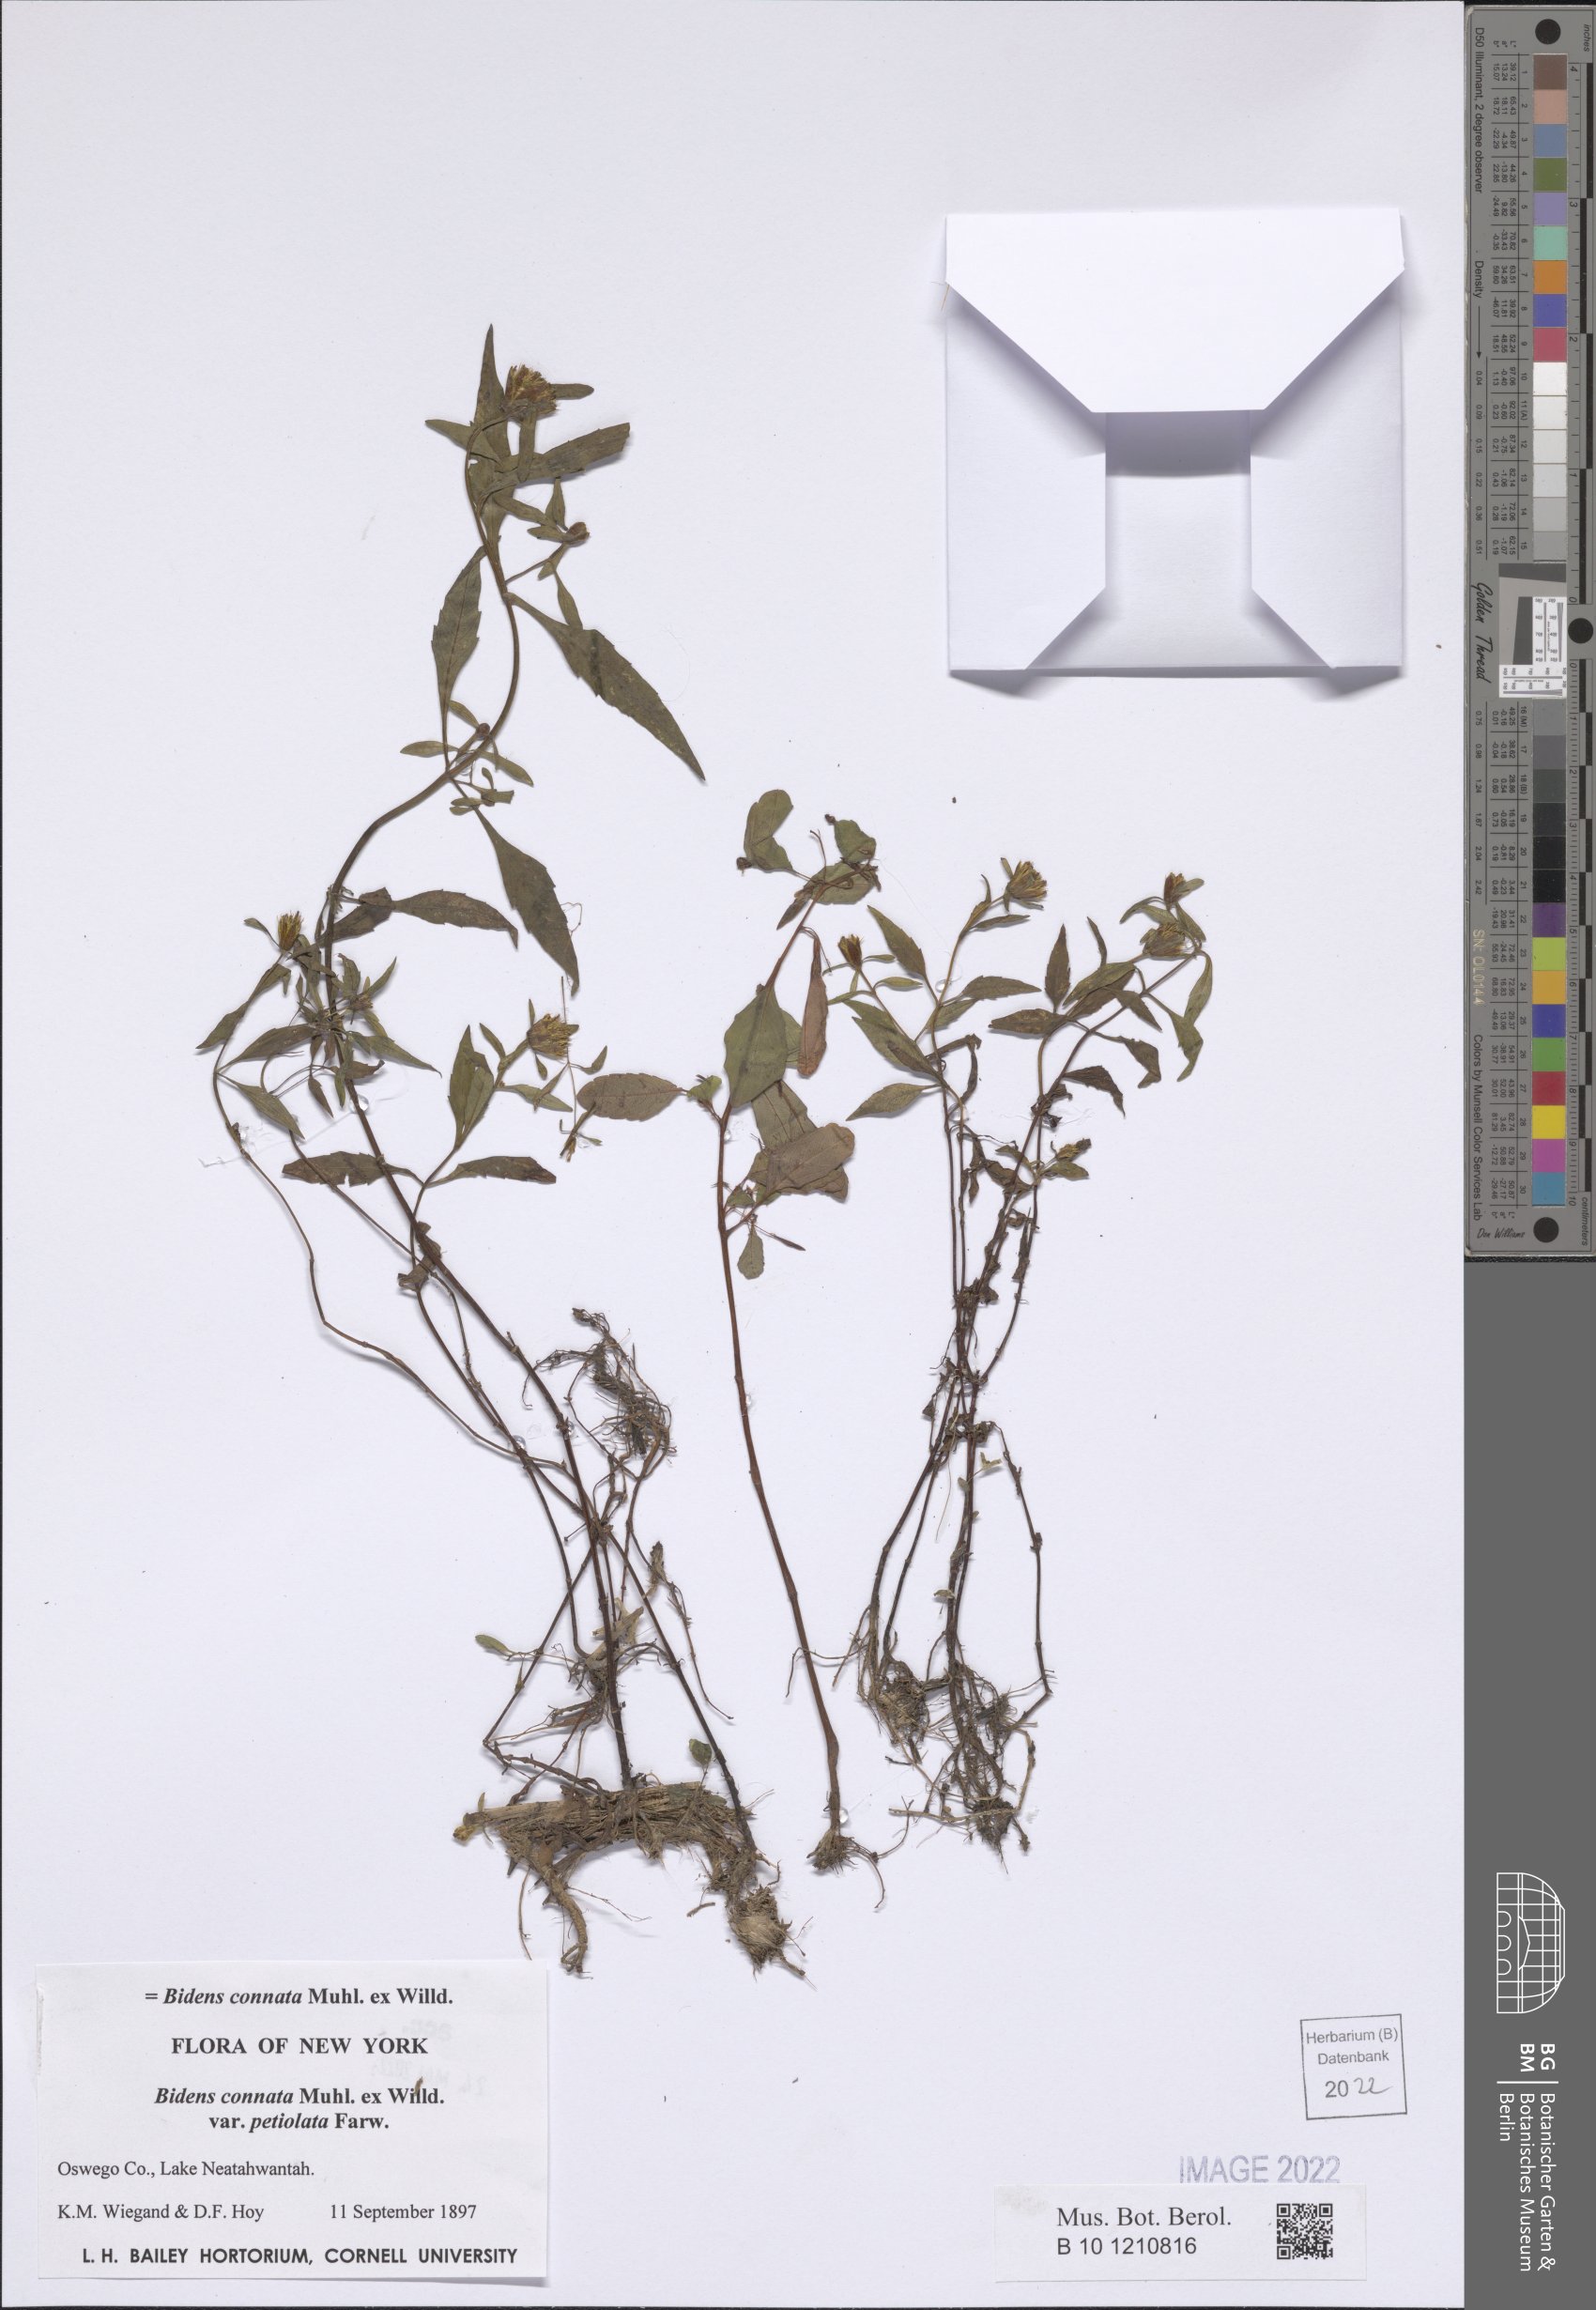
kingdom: Plantae
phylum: Tracheophyta
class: Magnoliopsida
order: Asterales
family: Asteraceae
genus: Bidens
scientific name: Bidens connata
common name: London bur-marigold
